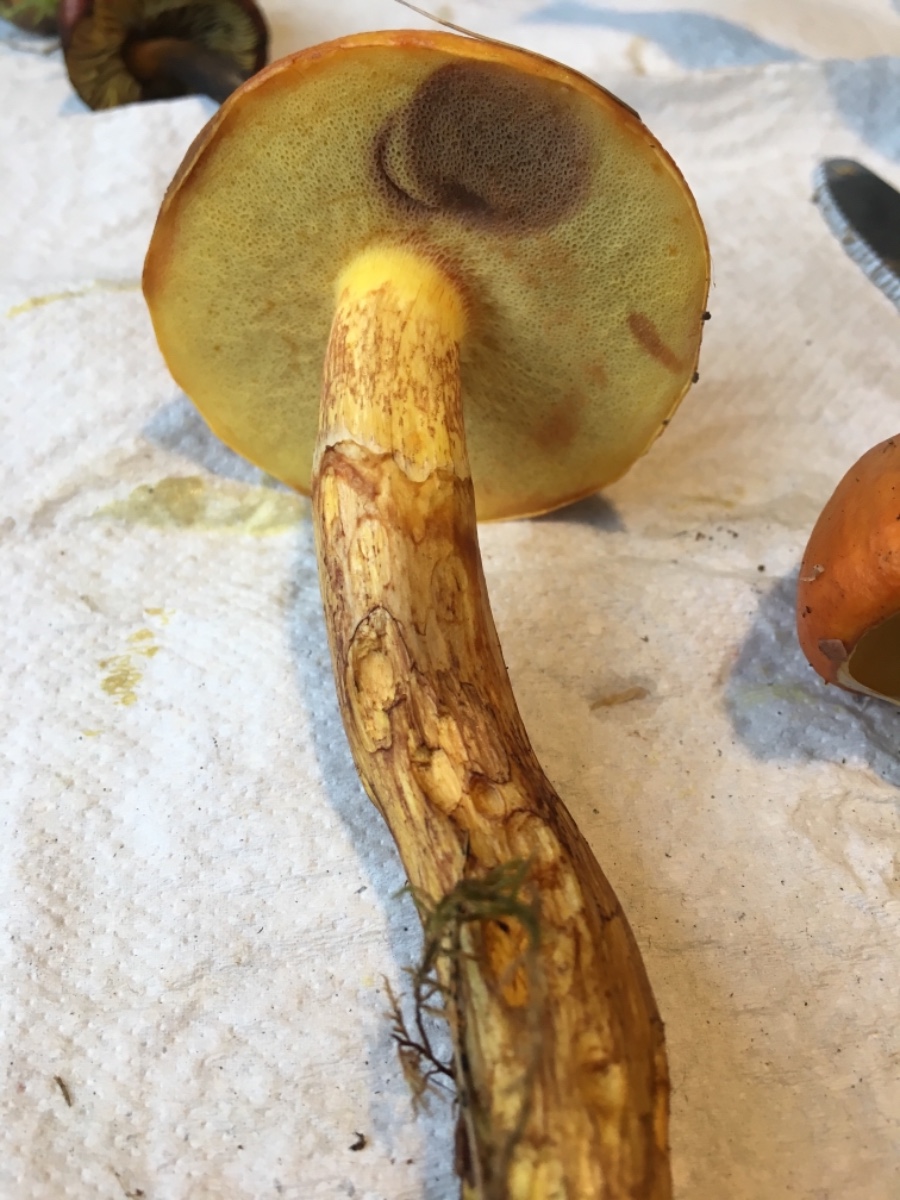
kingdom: Fungi
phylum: Basidiomycota
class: Agaricomycetes
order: Boletales
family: Suillaceae
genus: Suillus
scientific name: Suillus grevillei
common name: lærke-slimrørhat
